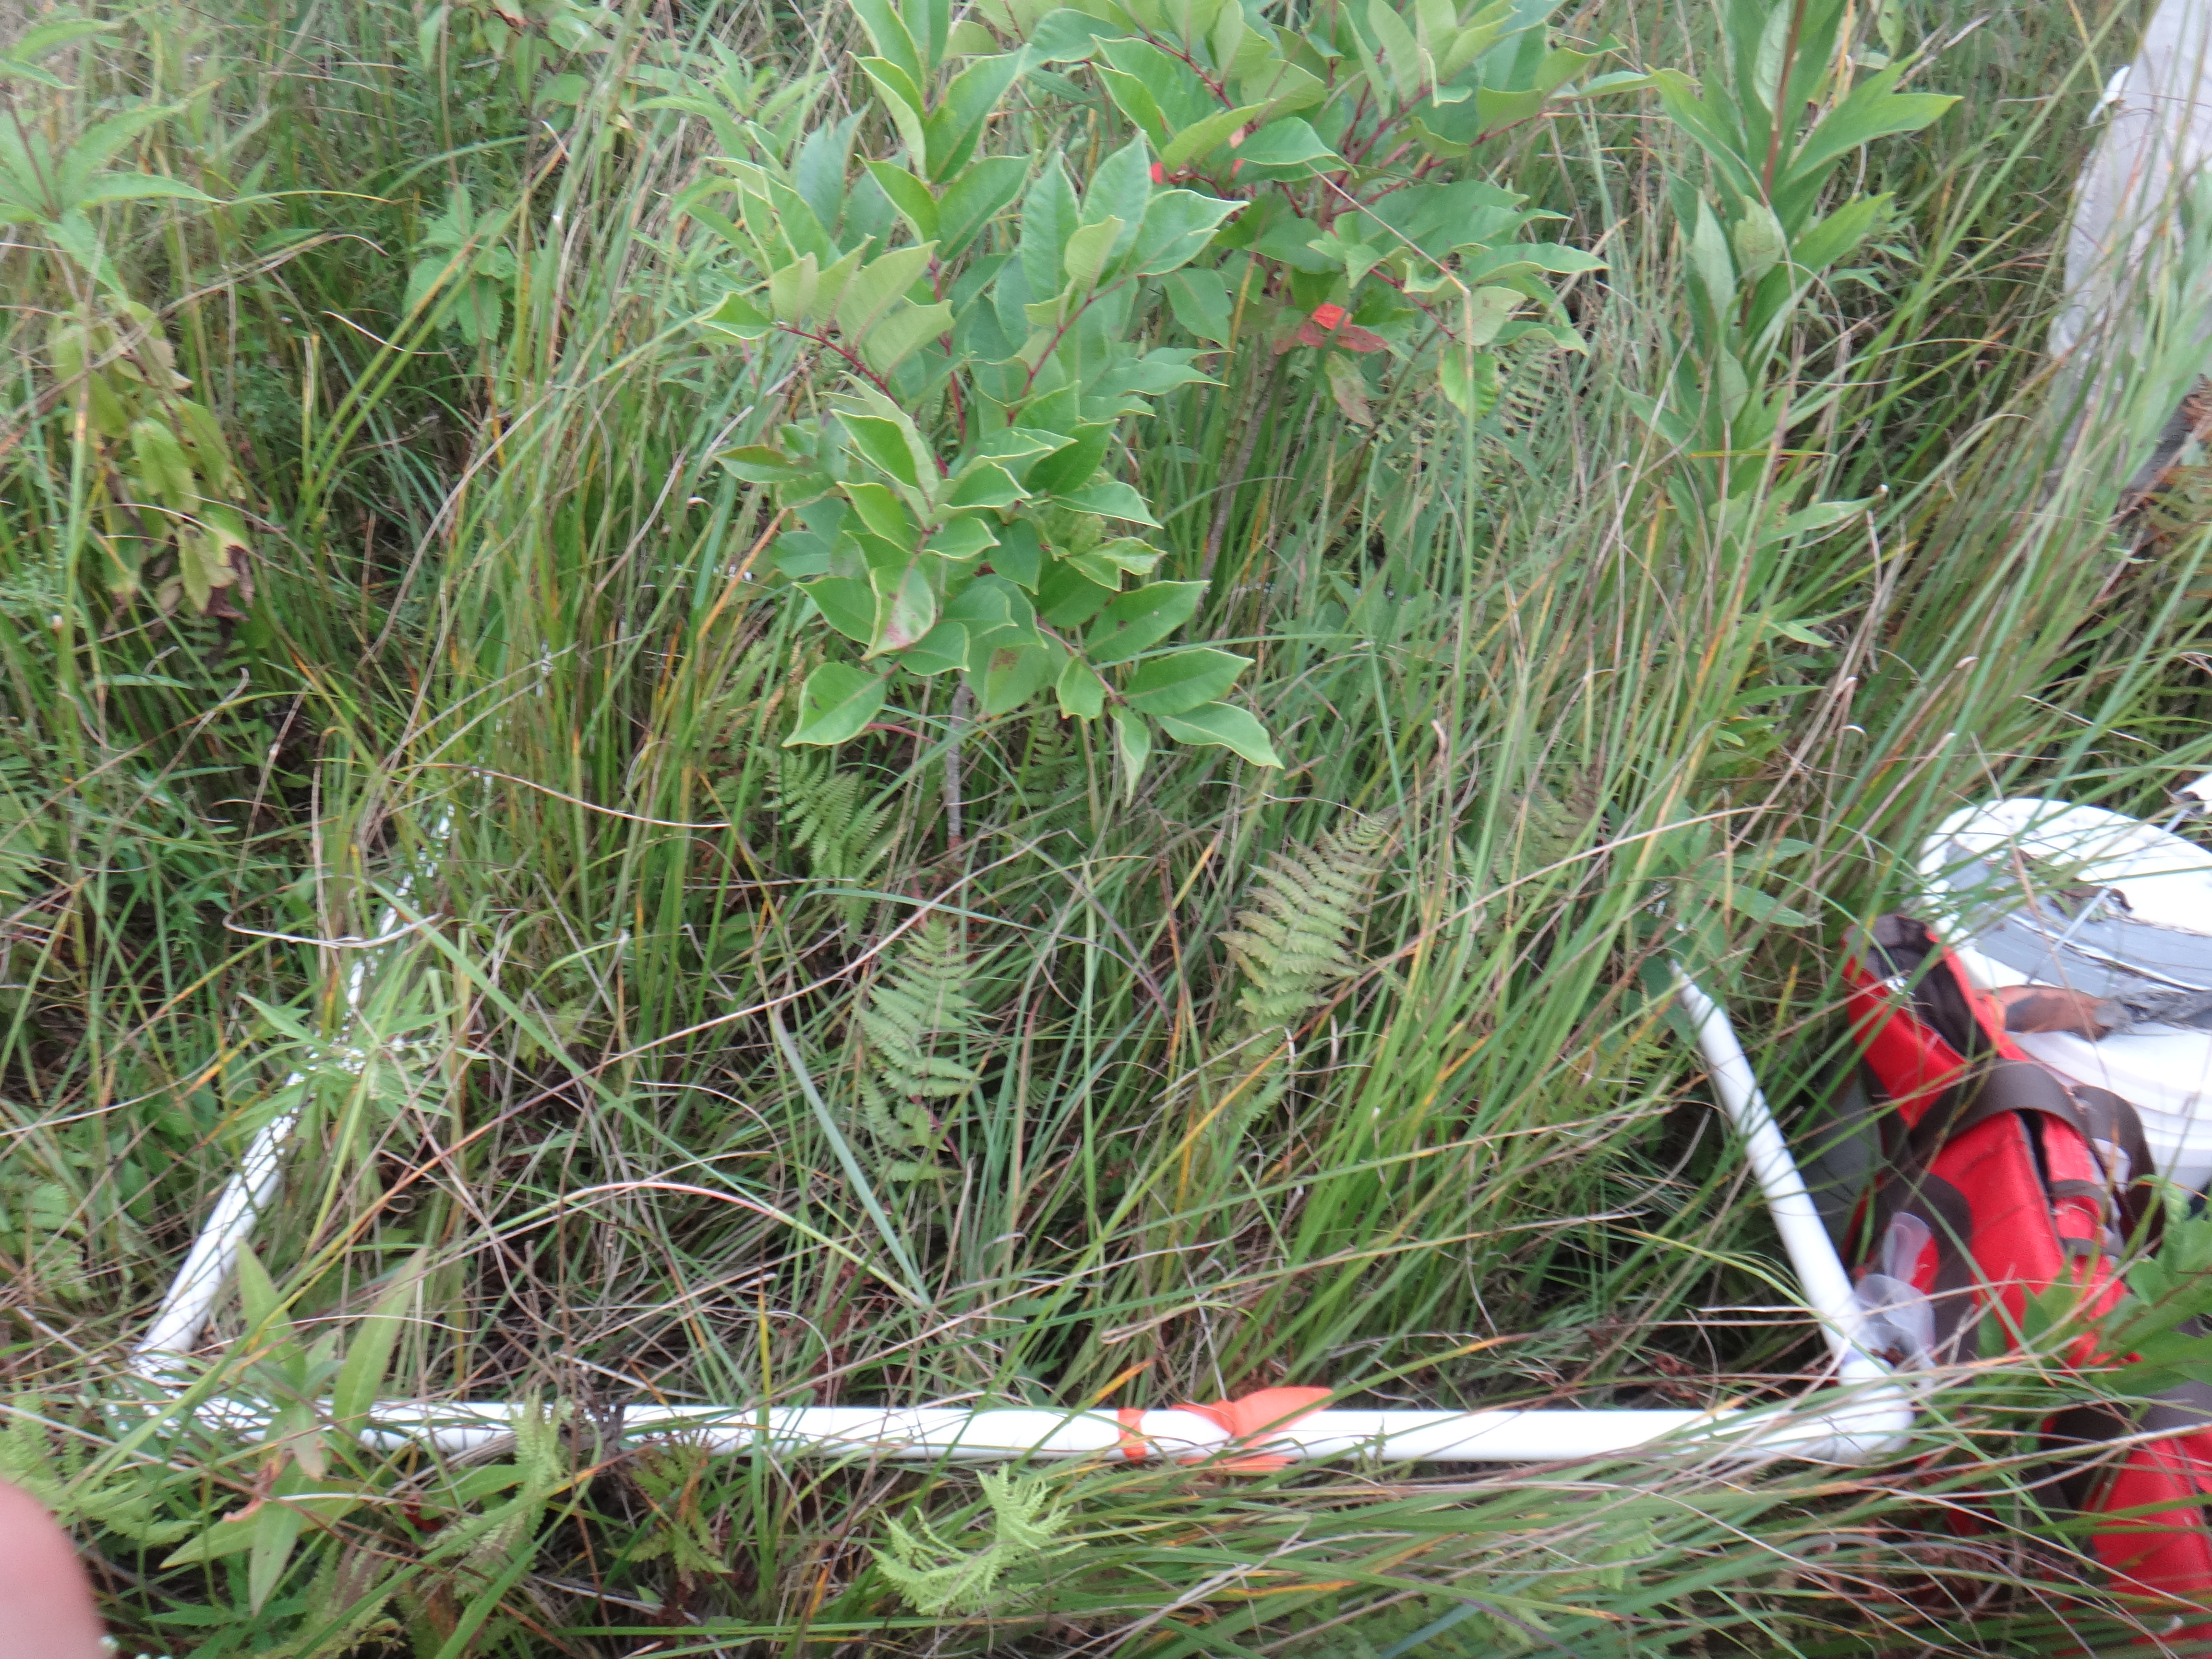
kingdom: Plantae
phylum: Tracheophyta
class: Liliopsida
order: Poales
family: Cyperaceae
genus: Carex
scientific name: Carex tetanica
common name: Rigid sedge
